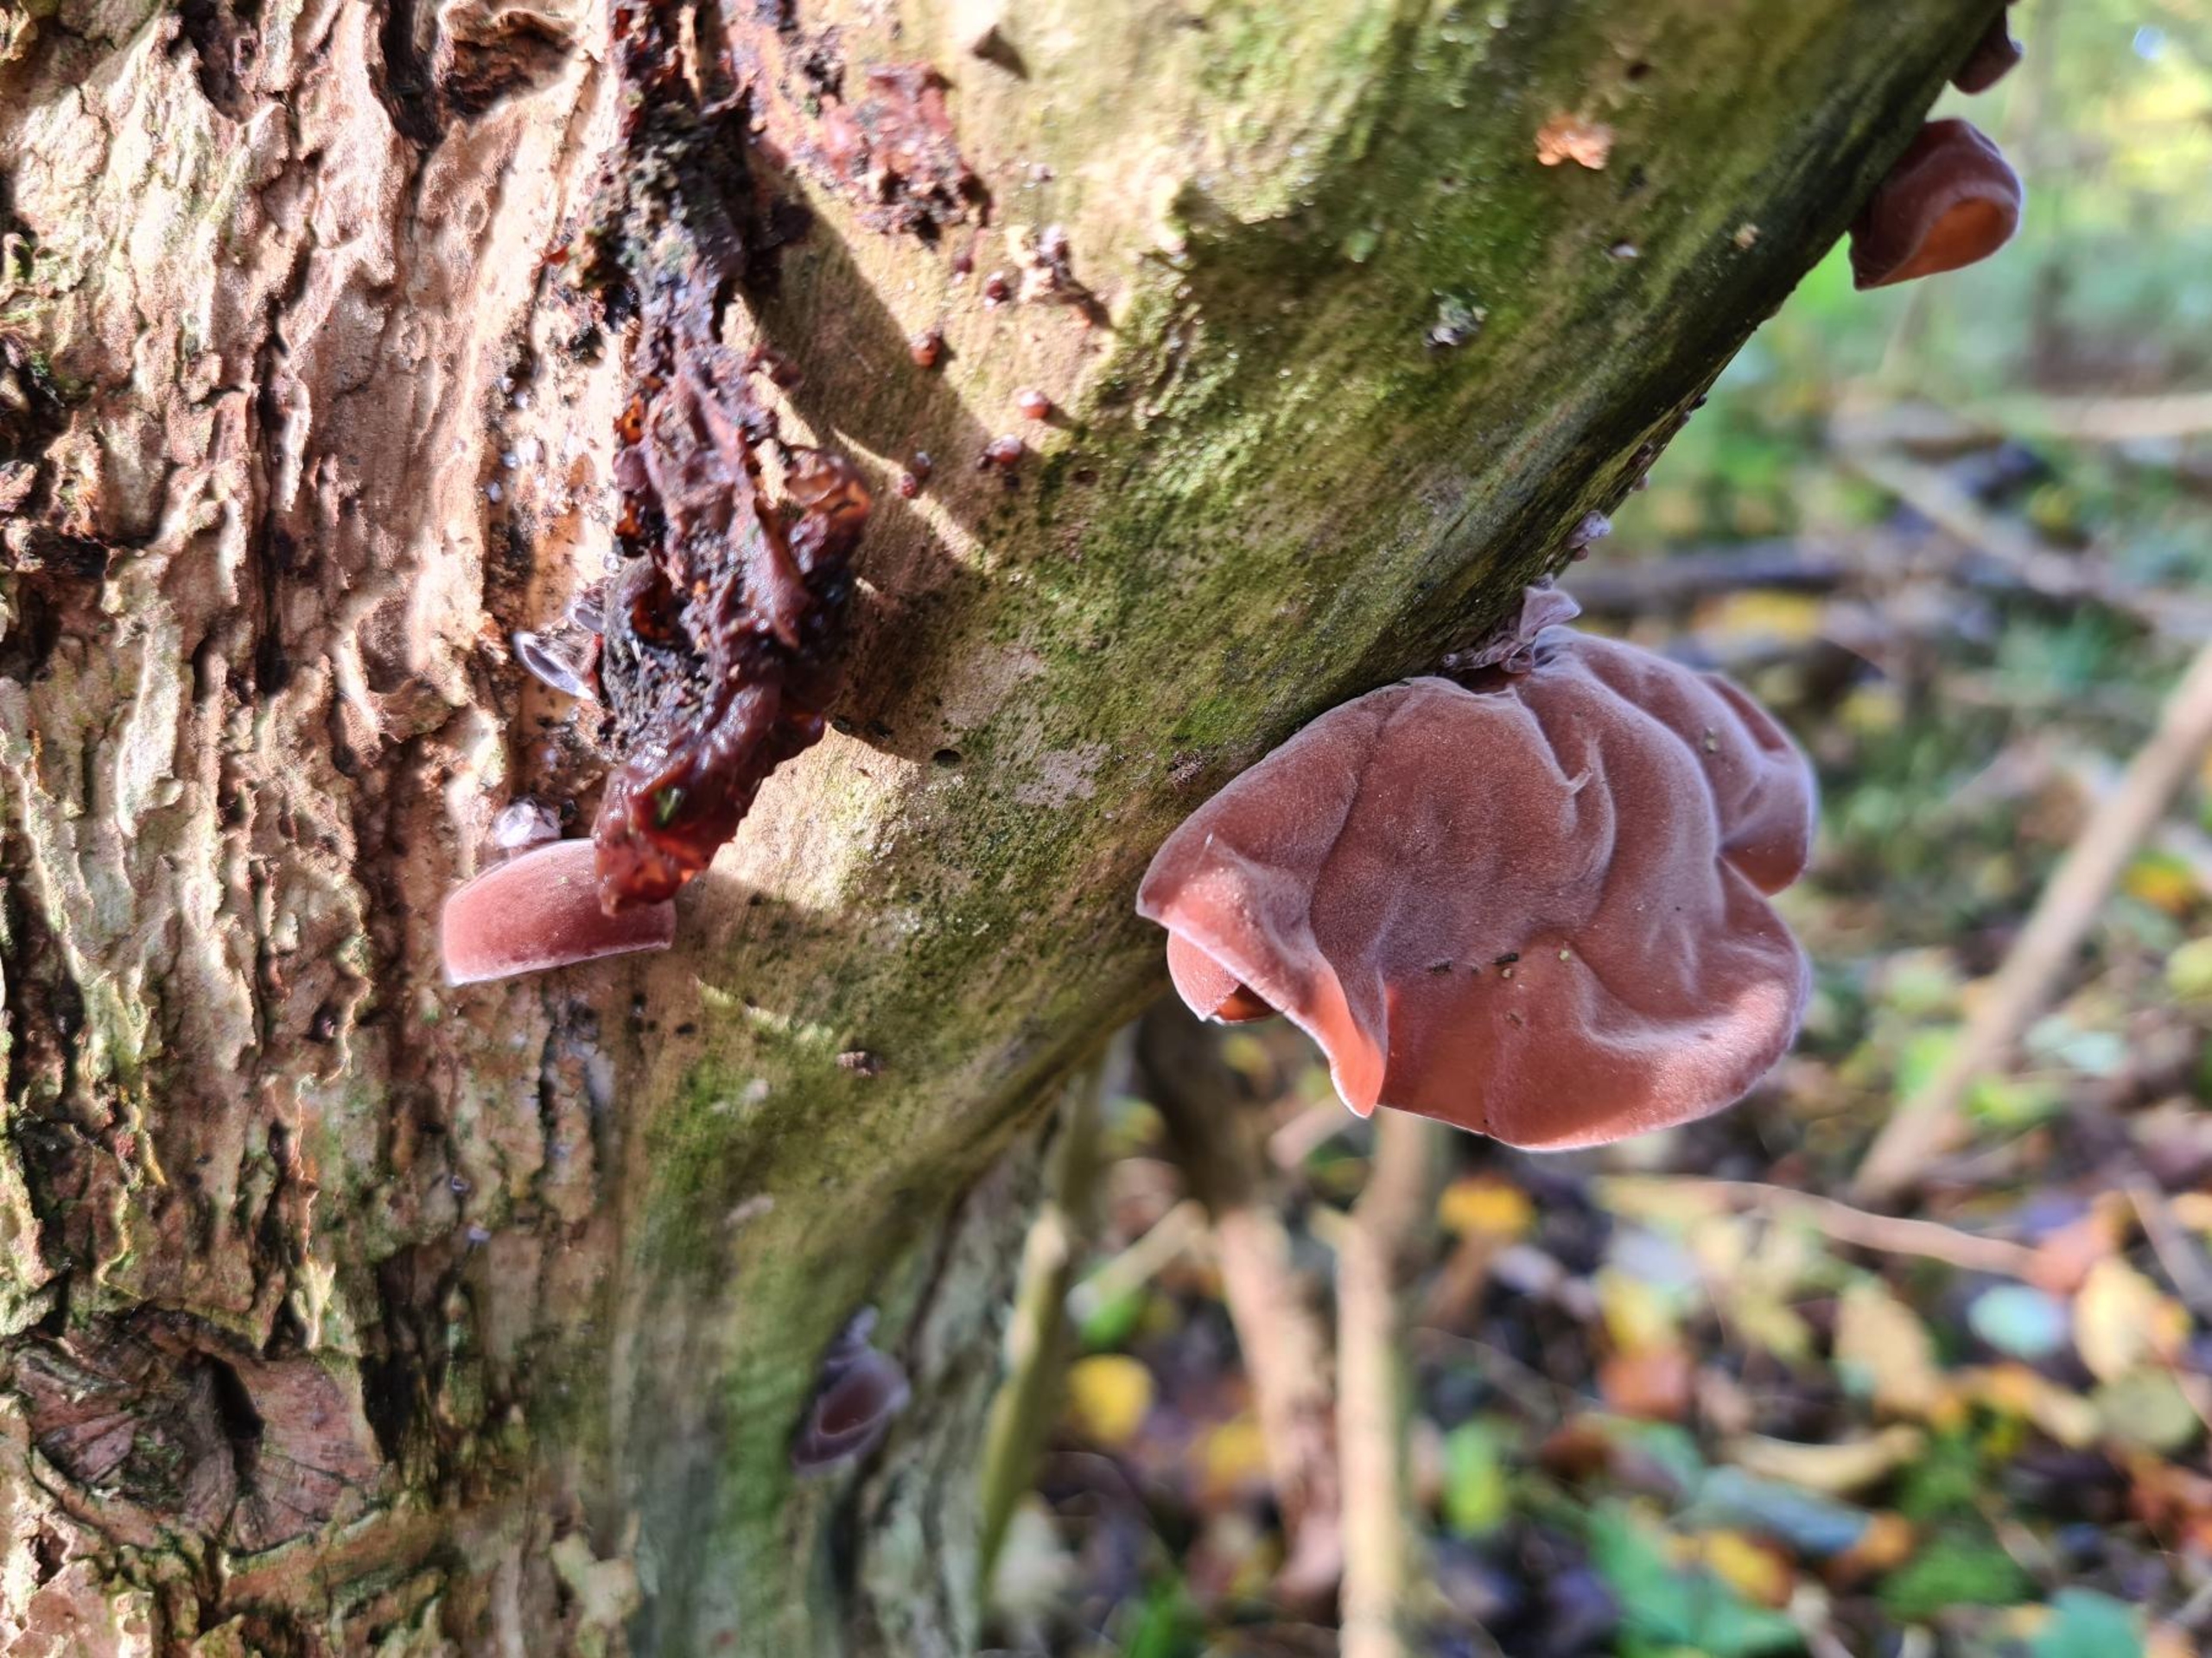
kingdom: Fungi
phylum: Basidiomycota
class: Agaricomycetes
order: Auriculariales
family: Auriculariaceae
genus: Auricularia
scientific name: Auricularia
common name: Judasøre
